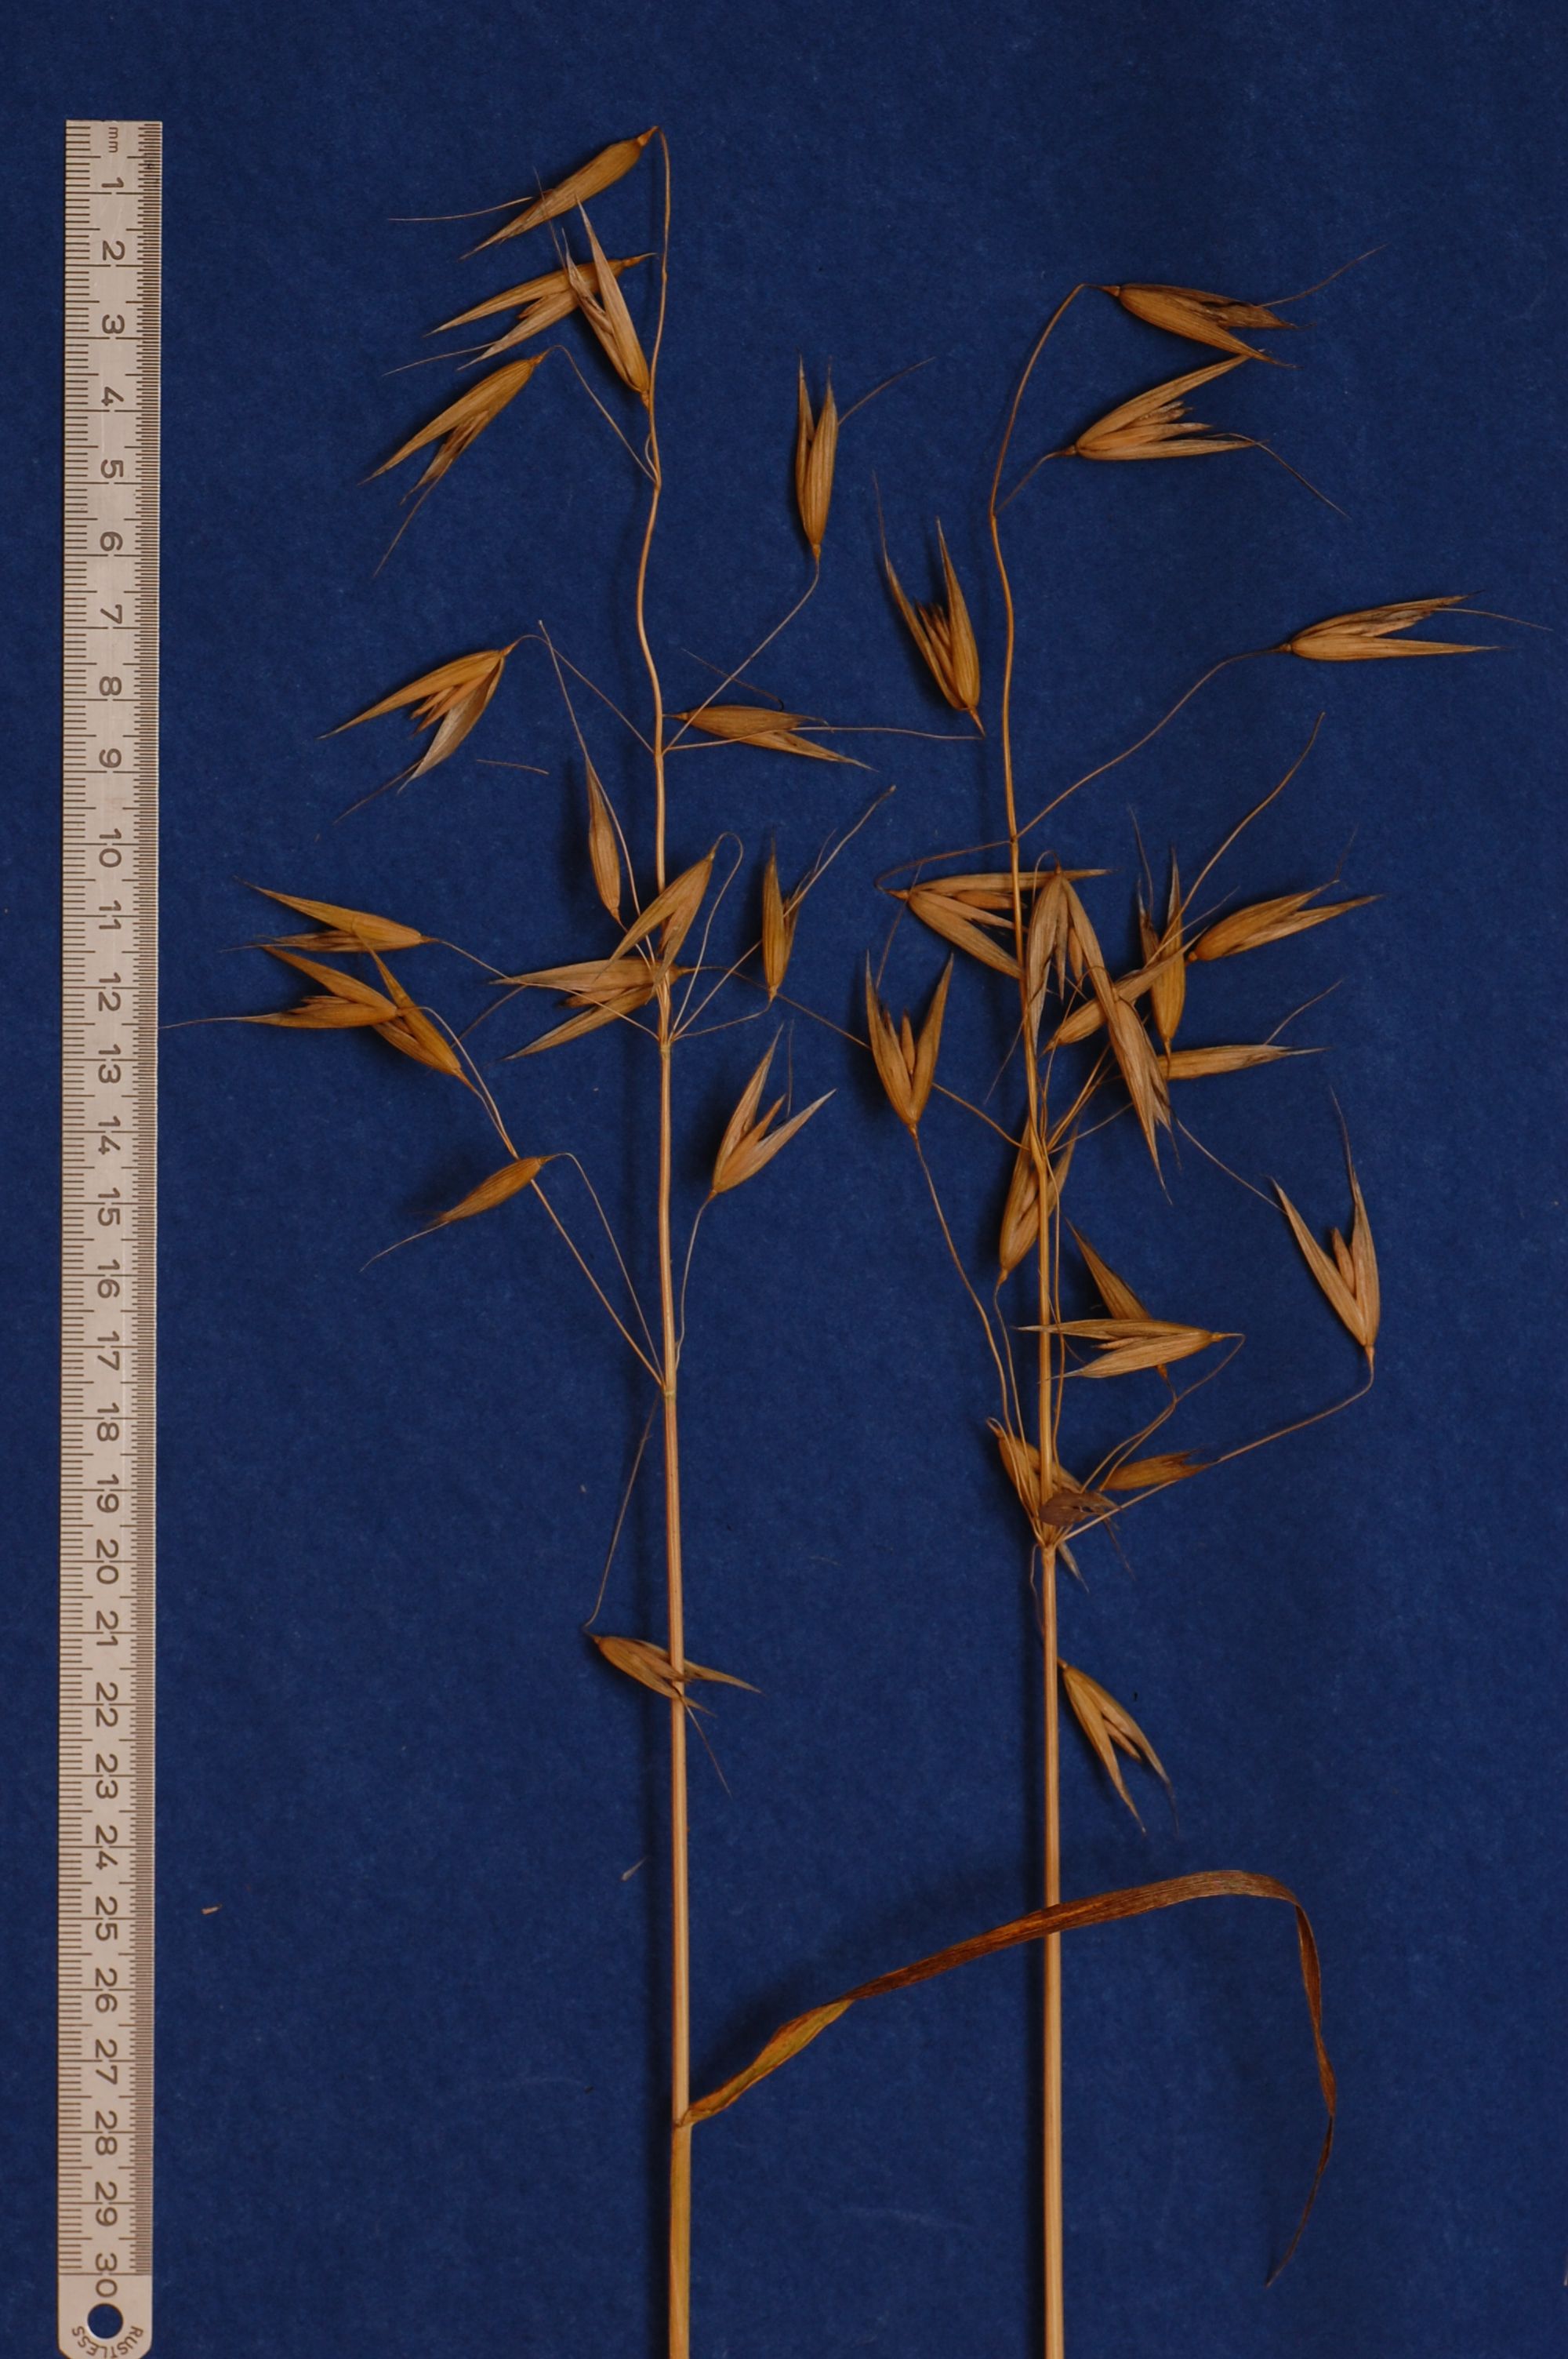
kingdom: Plantae
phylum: Tracheophyta
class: Liliopsida
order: Poales
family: Poaceae
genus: Avena
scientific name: Avena abyssinica
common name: Ethiopian oat
